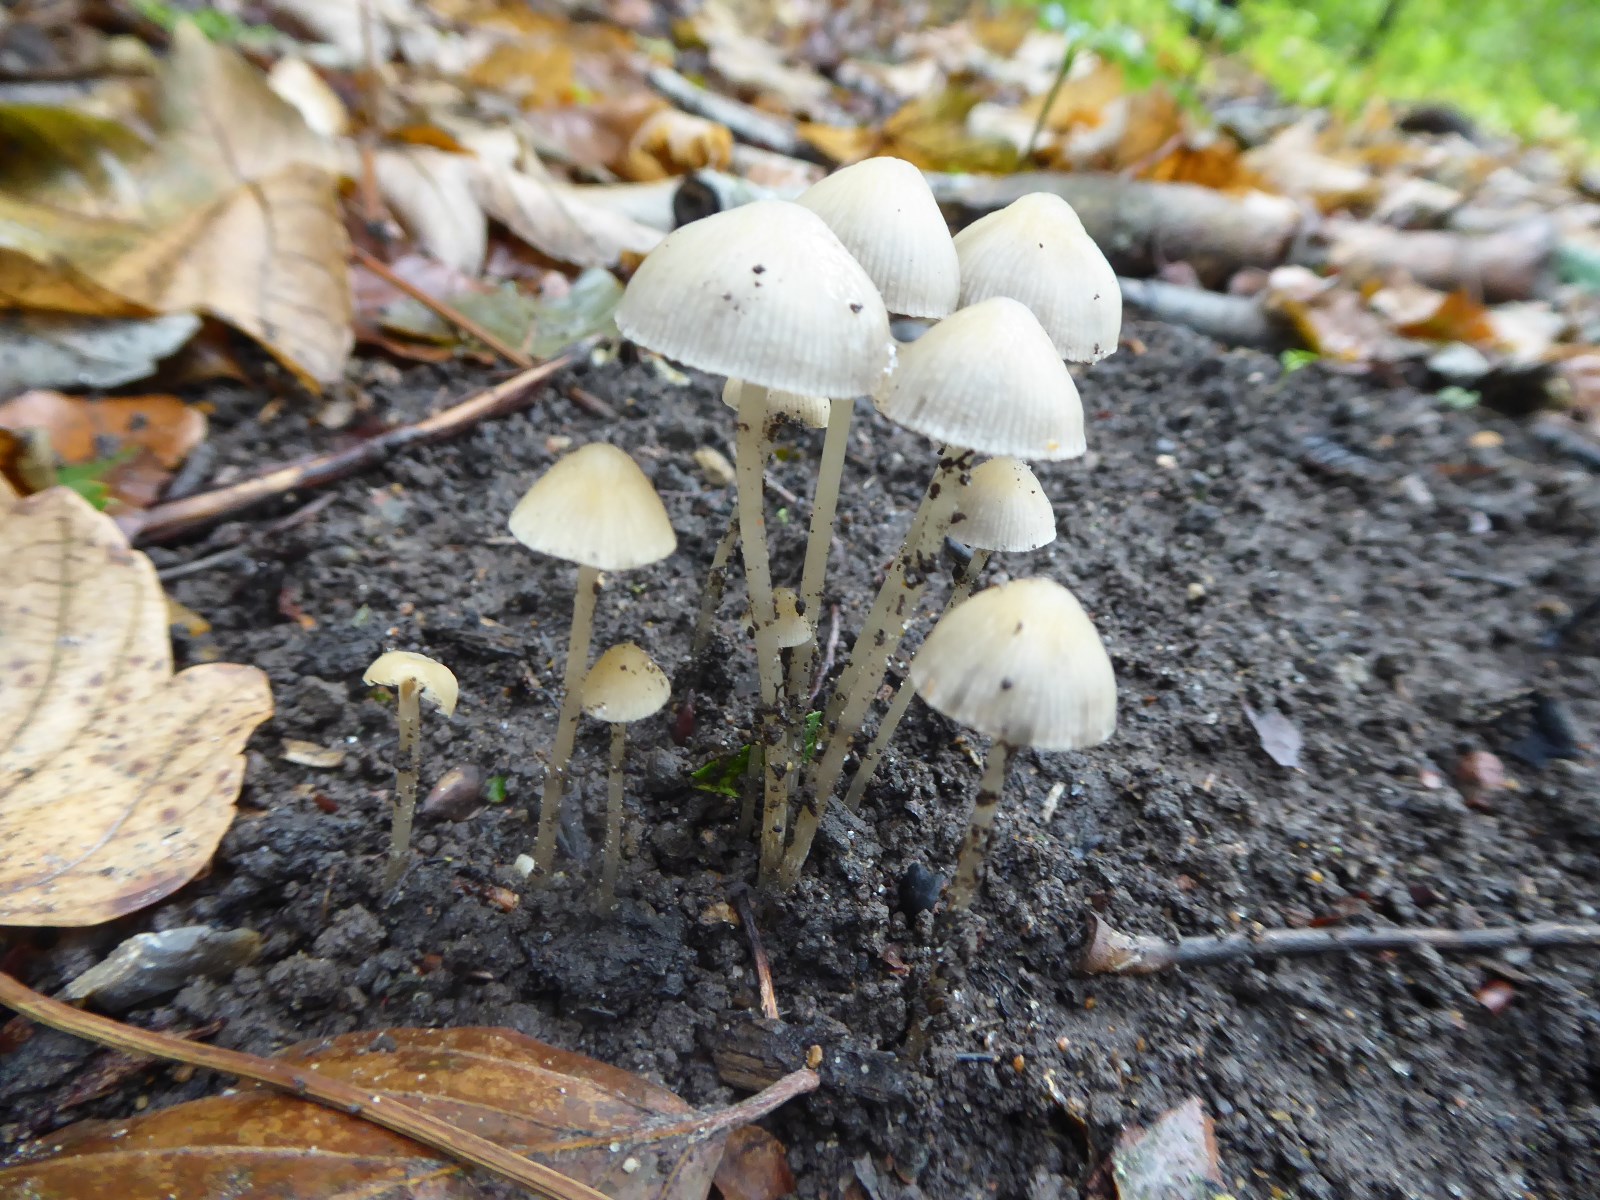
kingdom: Fungi
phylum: Basidiomycota
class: Agaricomycetes
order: Agaricales
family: Psathyrellaceae
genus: Psathyrella
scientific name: Psathyrella
